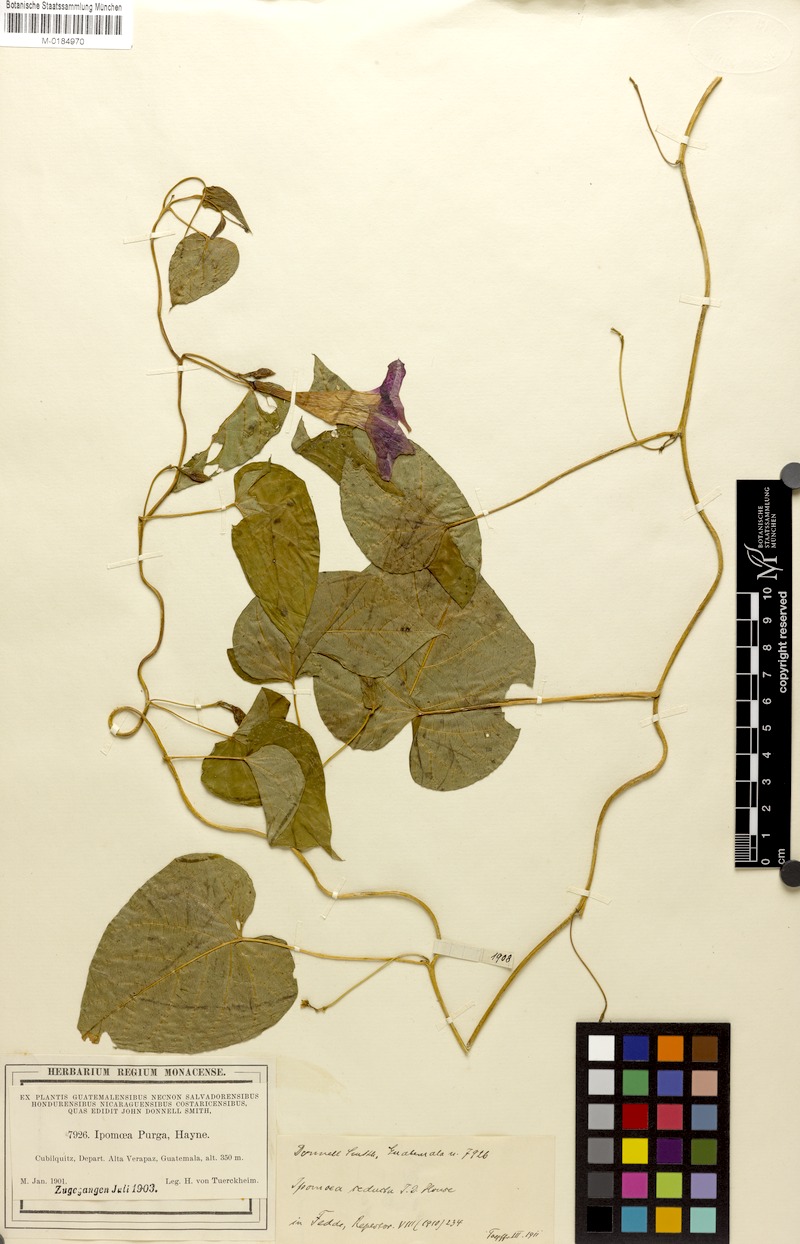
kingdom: Plantae
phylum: Tracheophyta
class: Magnoliopsida
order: Solanales
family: Convolvulaceae
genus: Ipomoea
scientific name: Ipomoea
